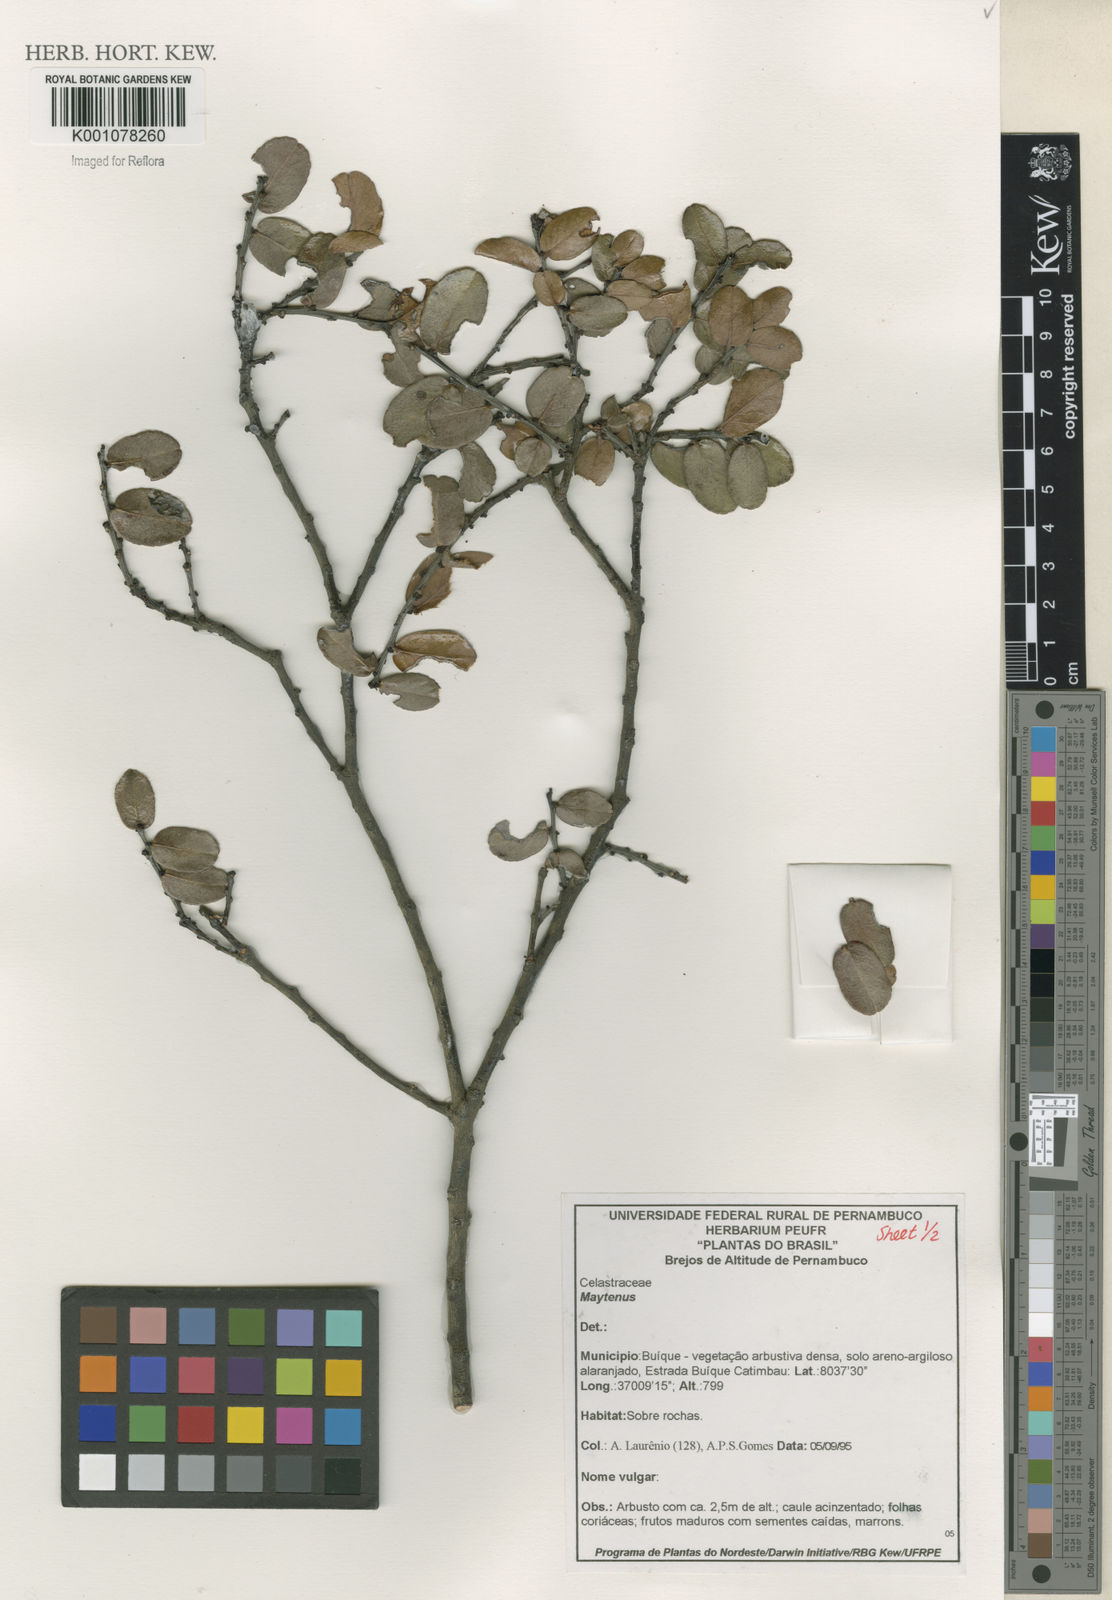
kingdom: Plantae
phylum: Tracheophyta
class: Magnoliopsida
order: Celastrales
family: Celastraceae
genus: Maytenus
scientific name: Maytenus
